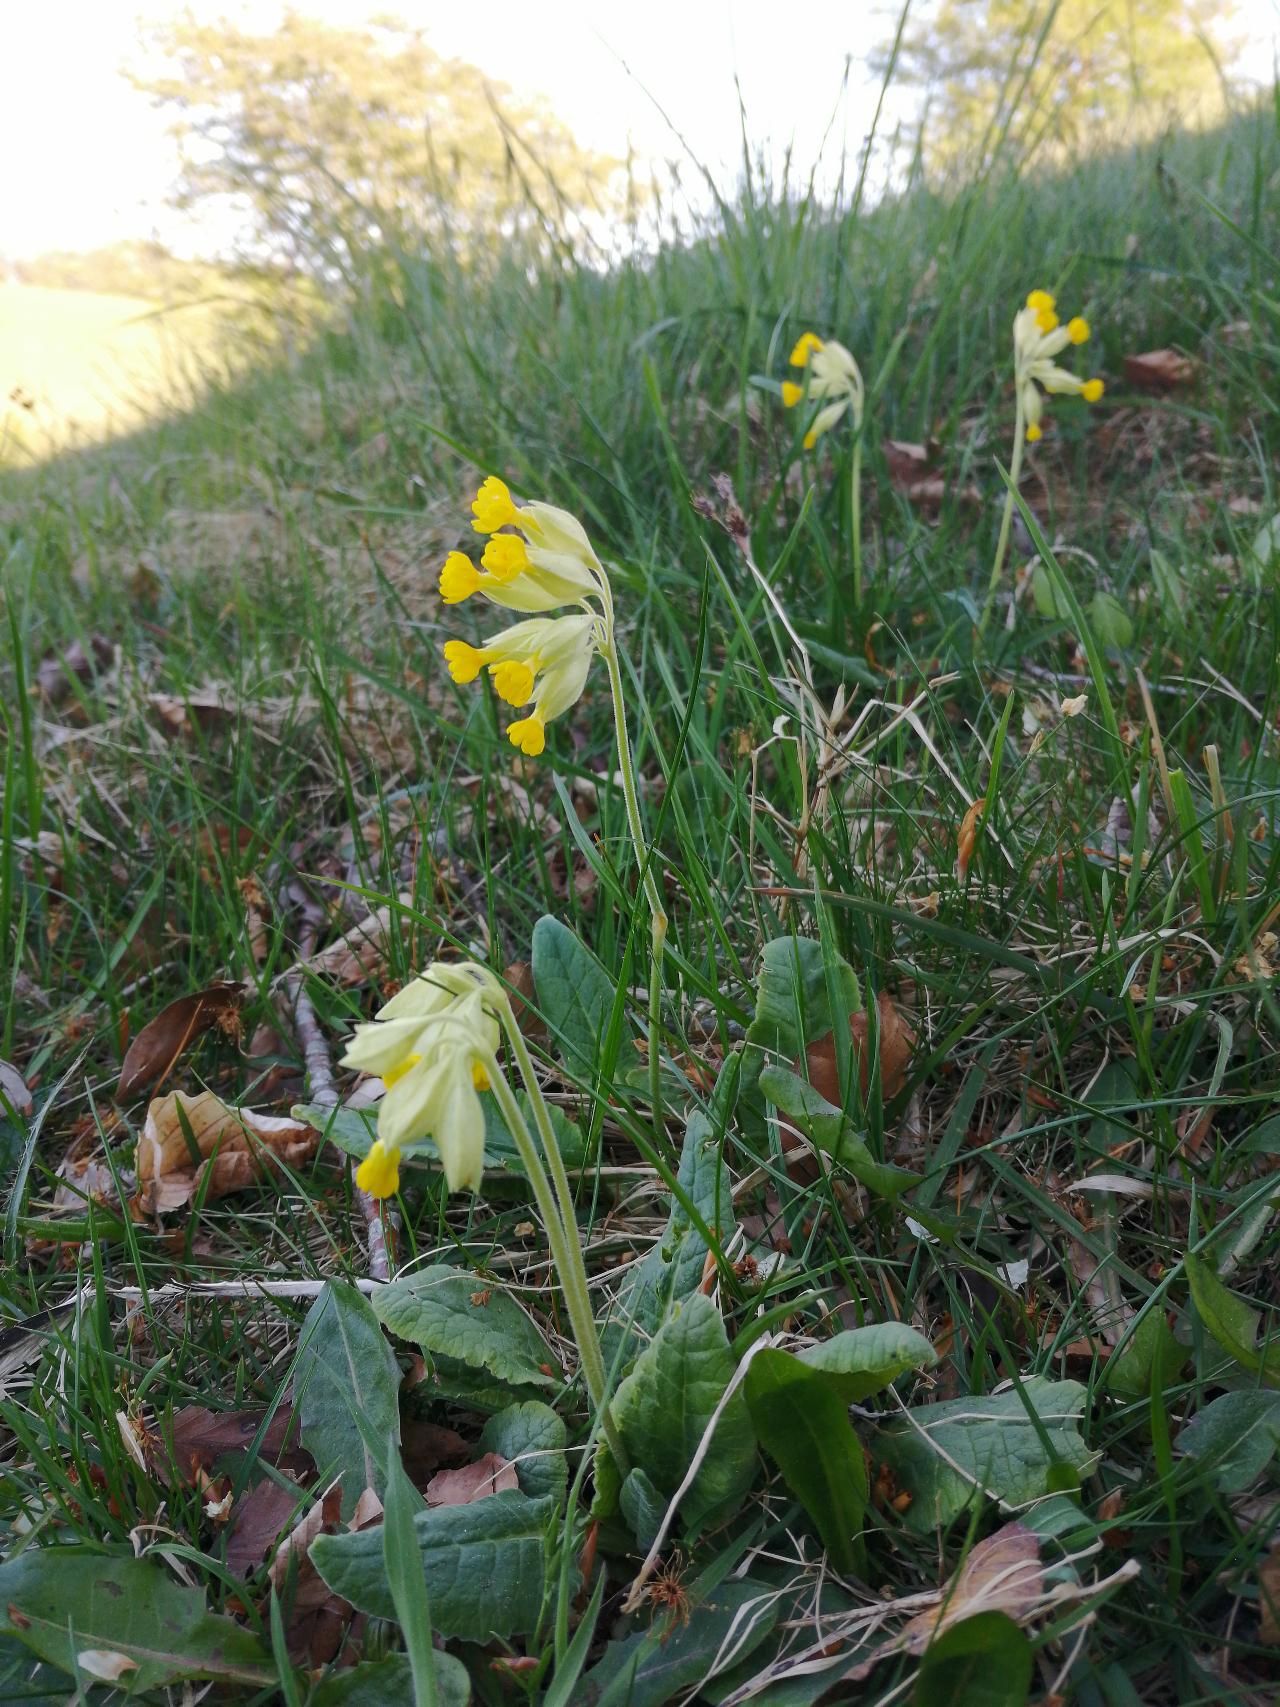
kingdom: Plantae
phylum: Tracheophyta
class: Magnoliopsida
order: Ericales
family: Primulaceae
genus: Primula
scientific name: Primula veris
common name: Hulkravet kodriver
